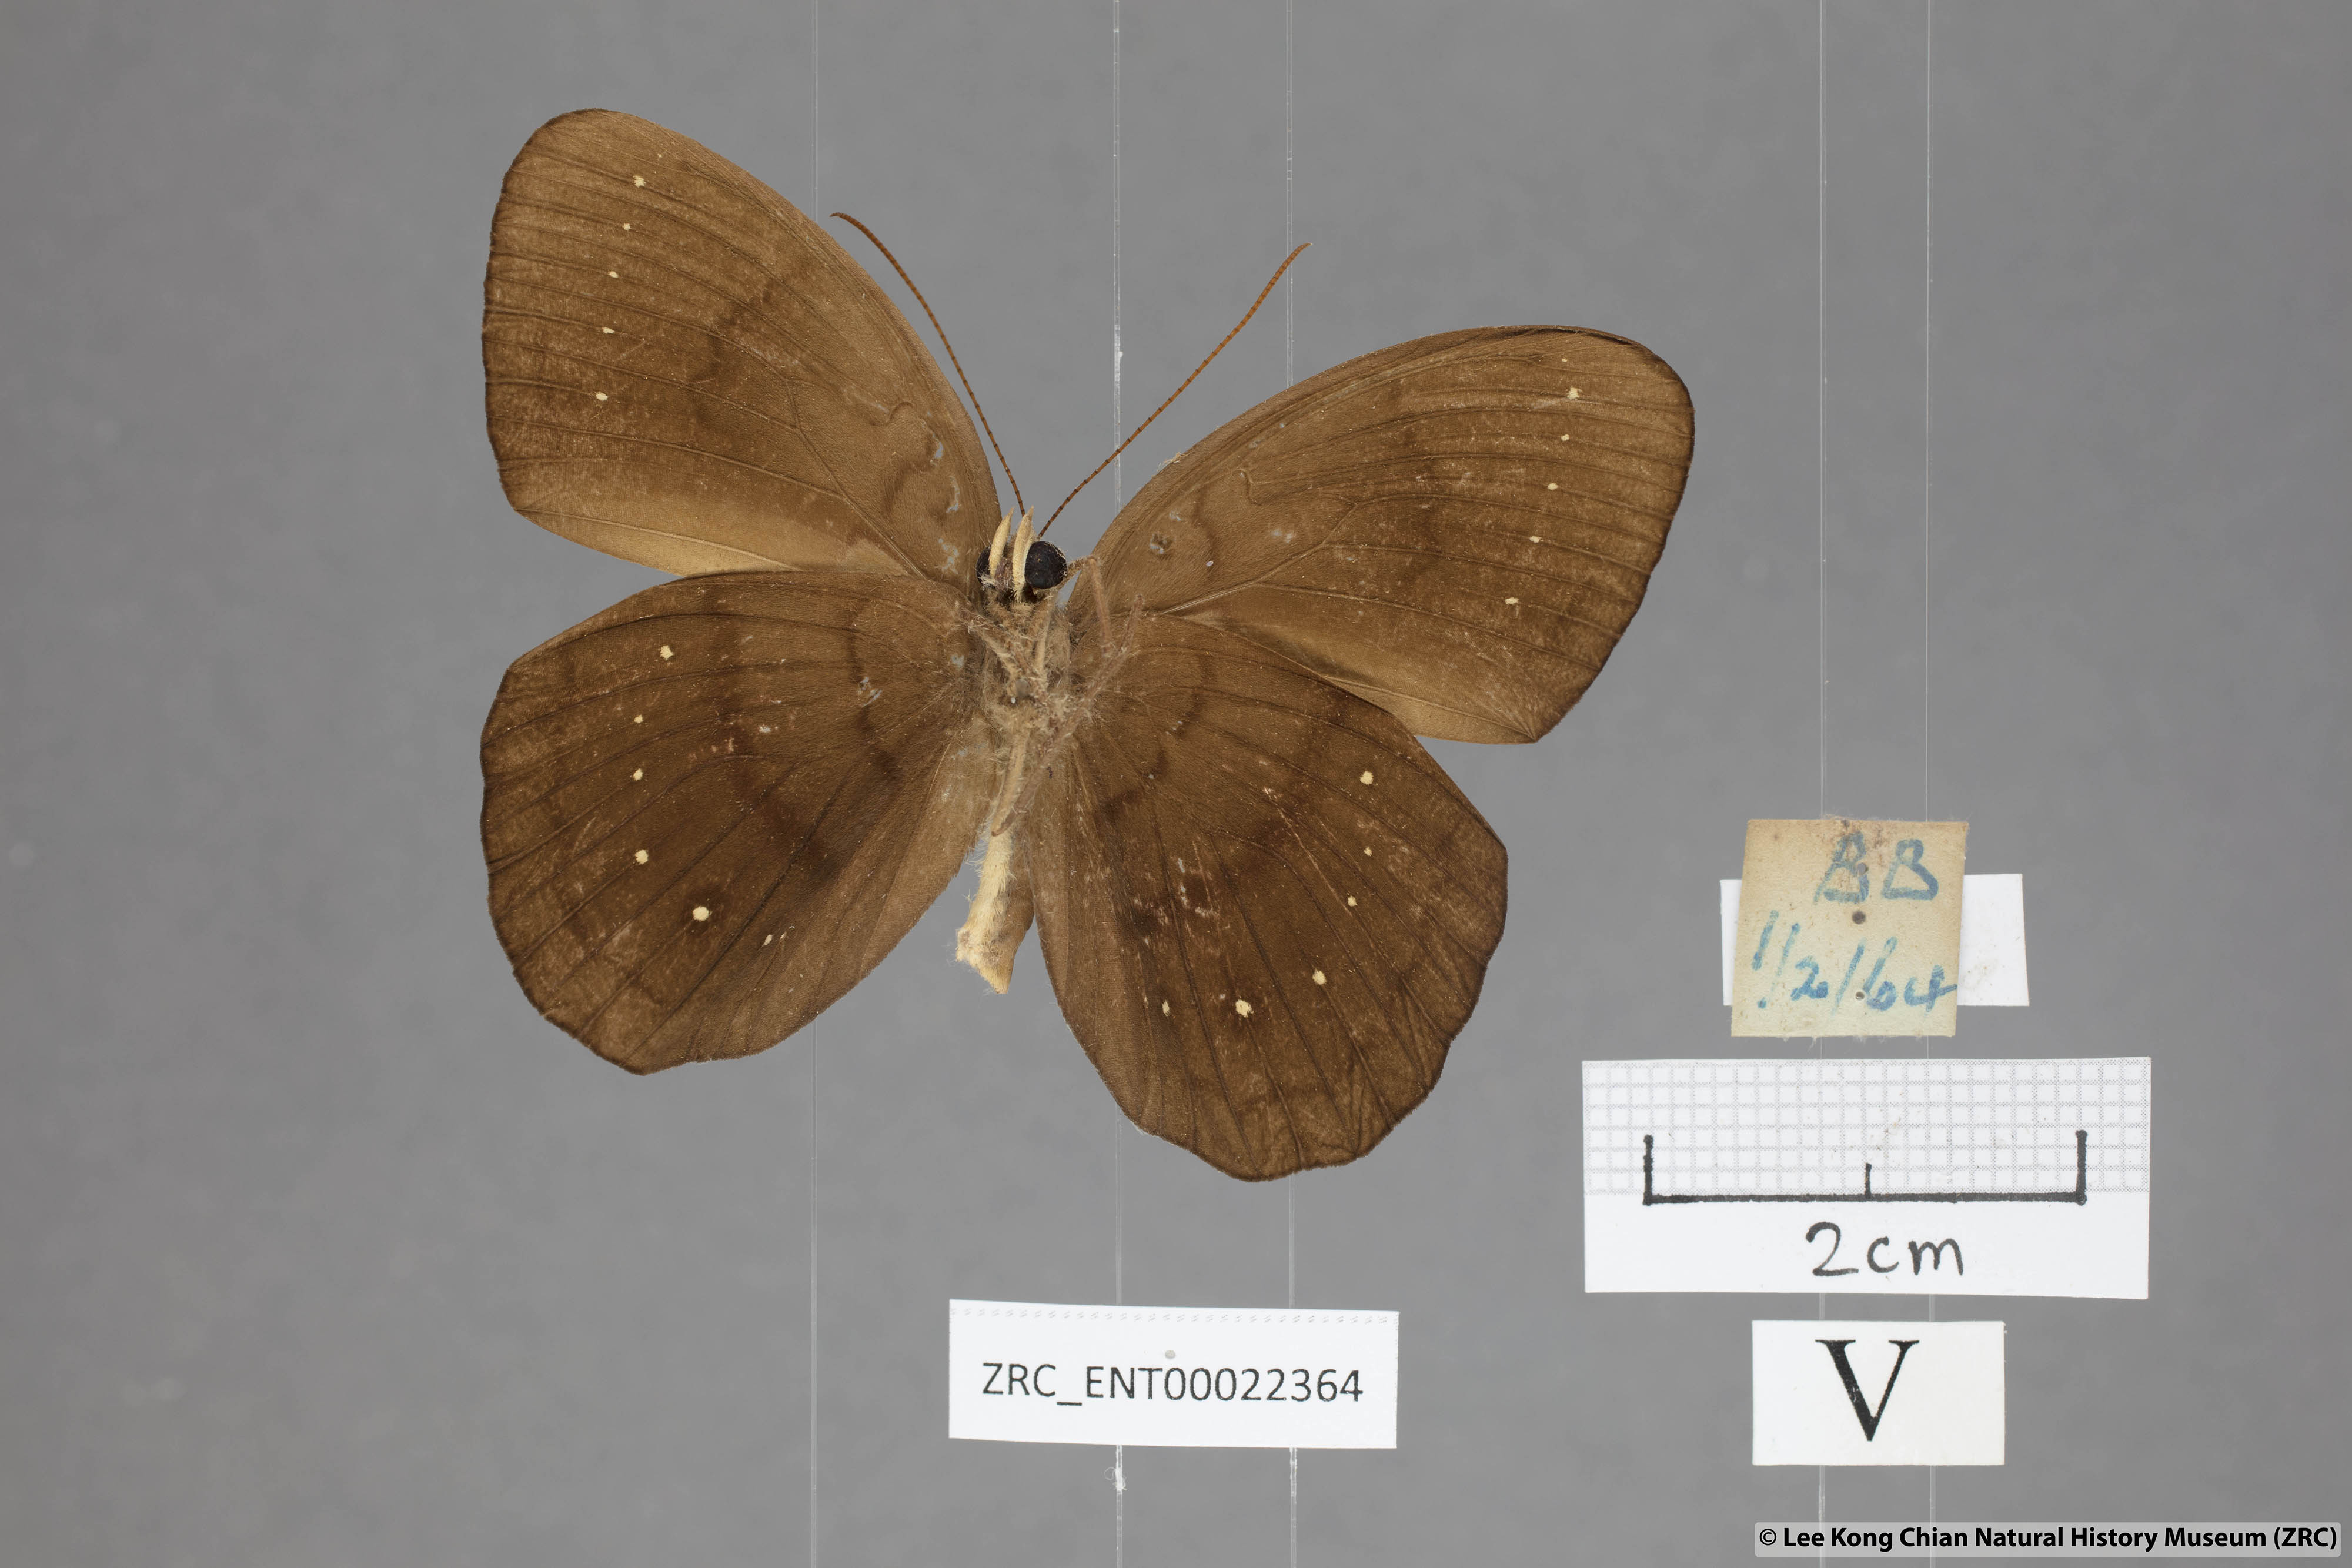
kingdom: Animalia
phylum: Arthropoda
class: Insecta
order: Lepidoptera
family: Nymphalidae
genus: Faunis
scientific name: Faunis canens
